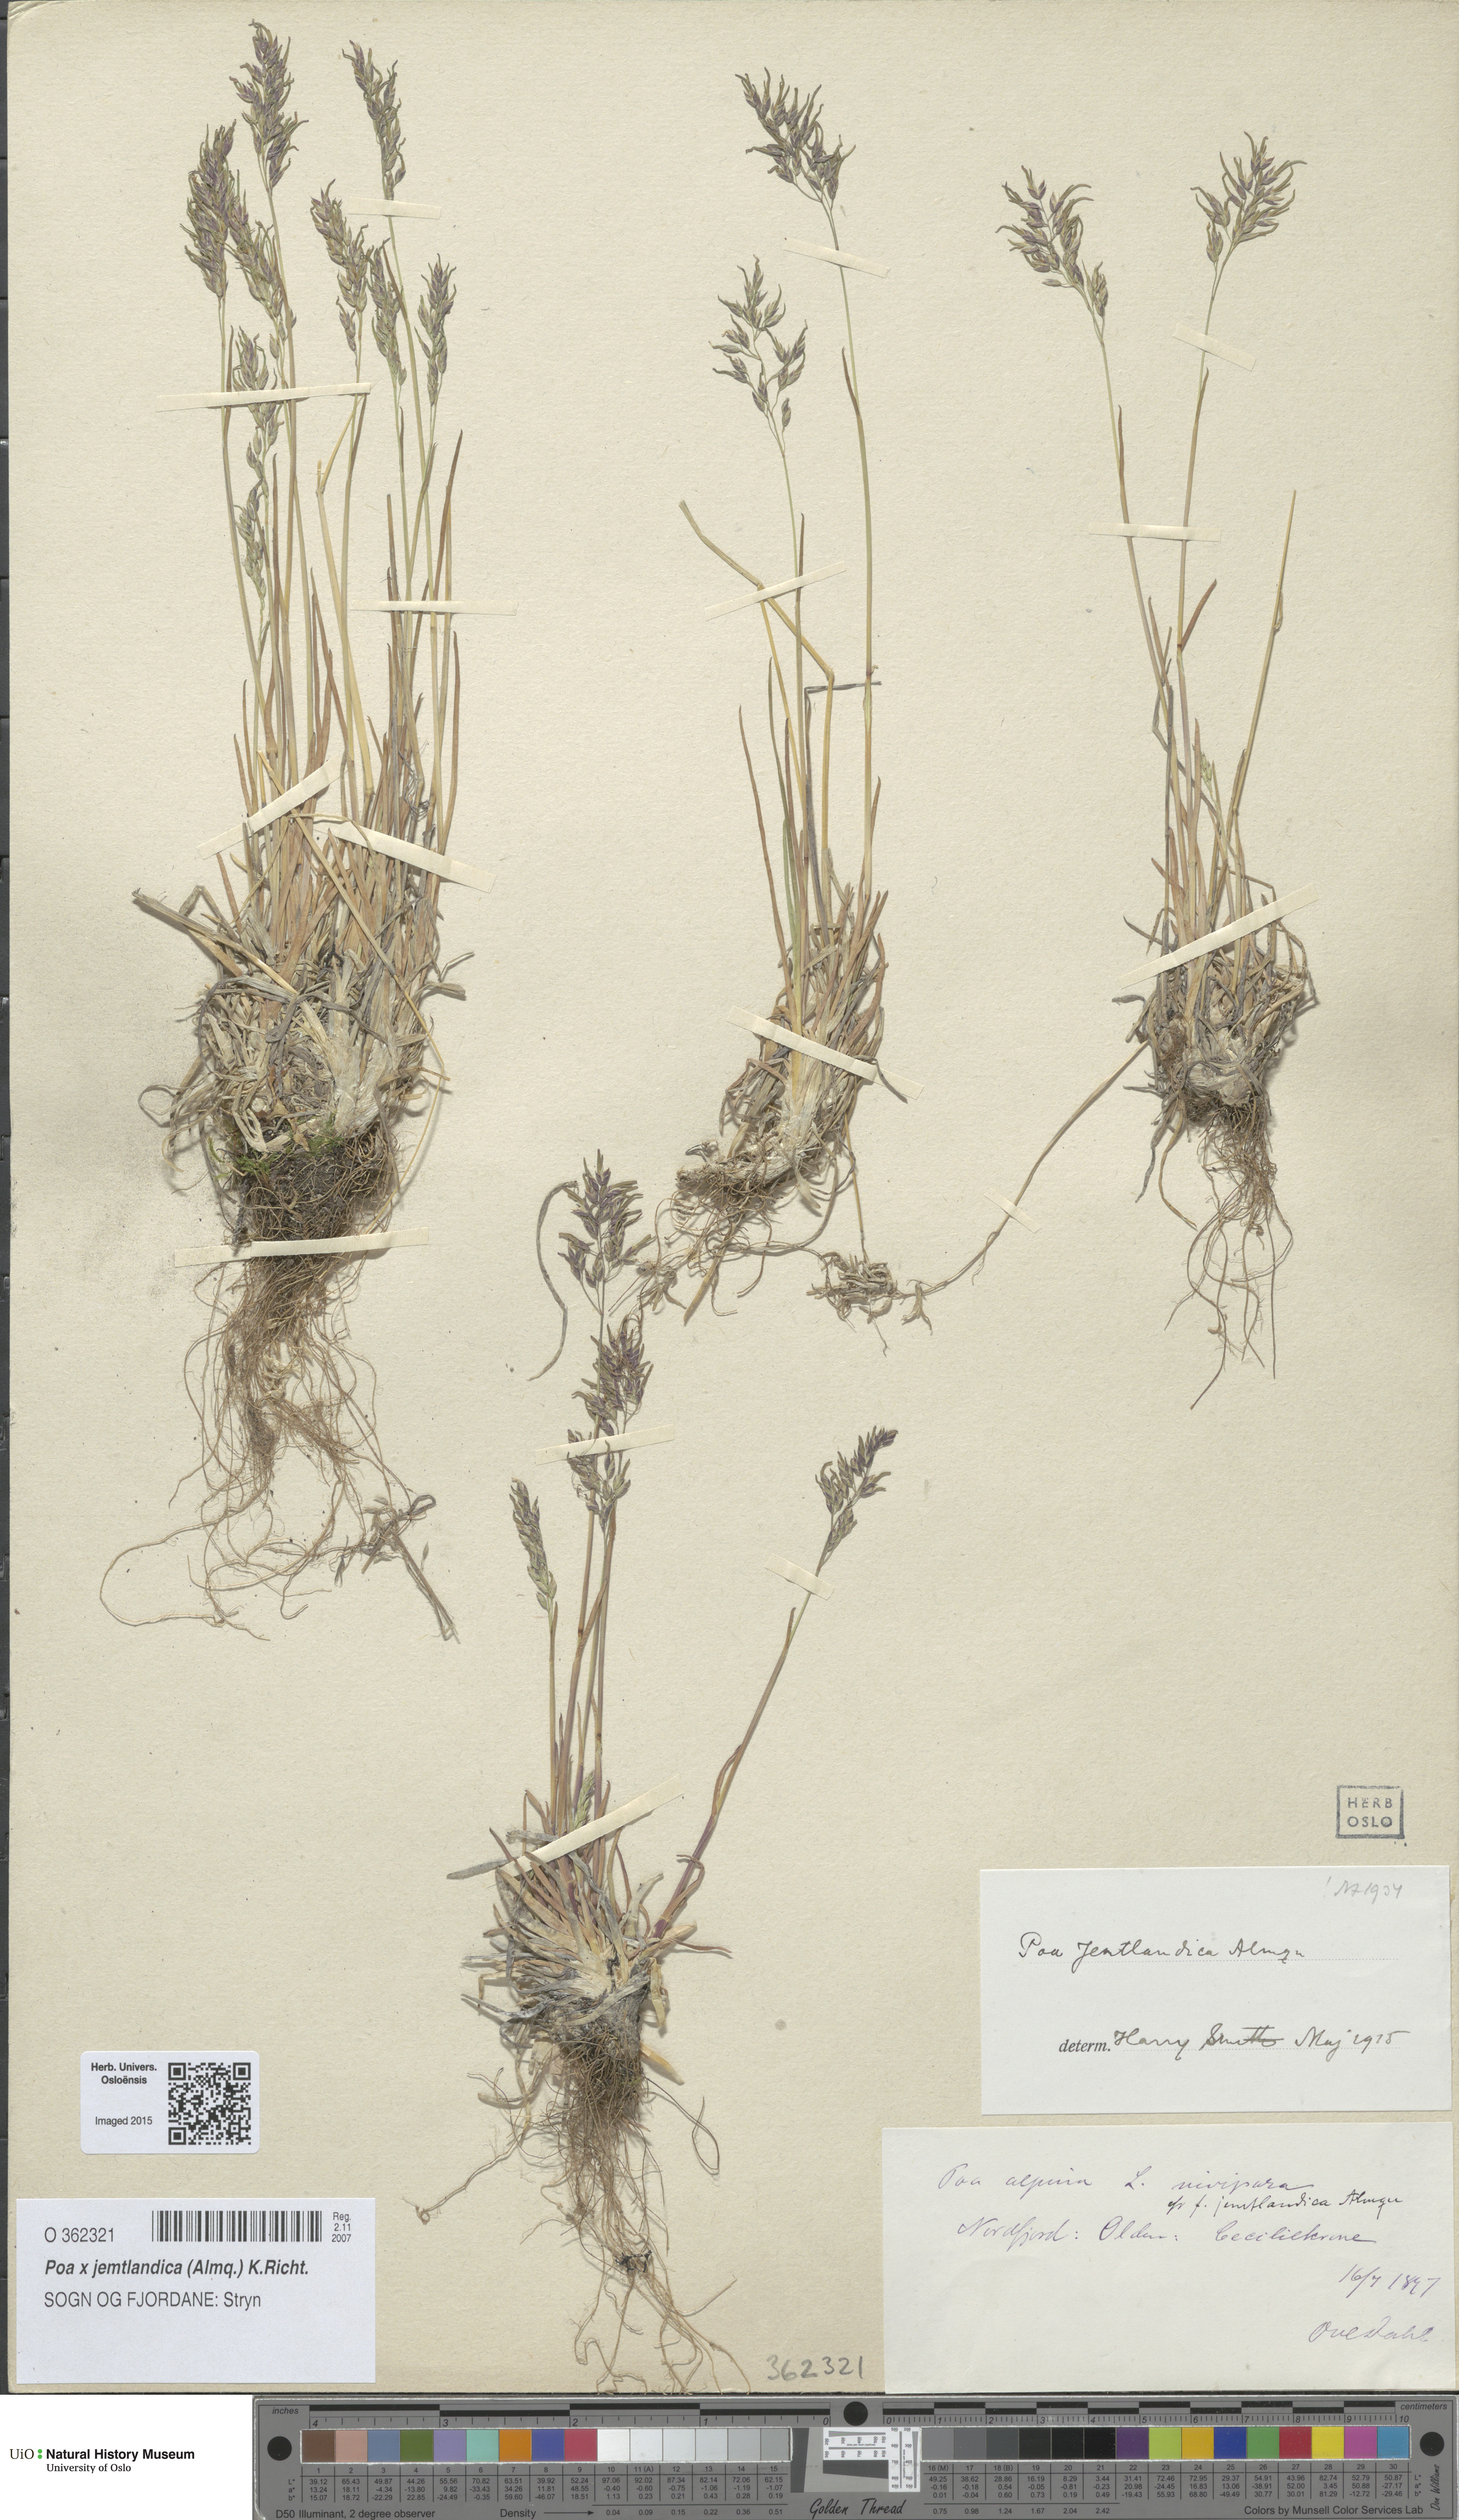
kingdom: Plantae
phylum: Tracheophyta
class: Liliopsida
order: Poales
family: Poaceae
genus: Poa
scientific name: Poa jemtlandica
